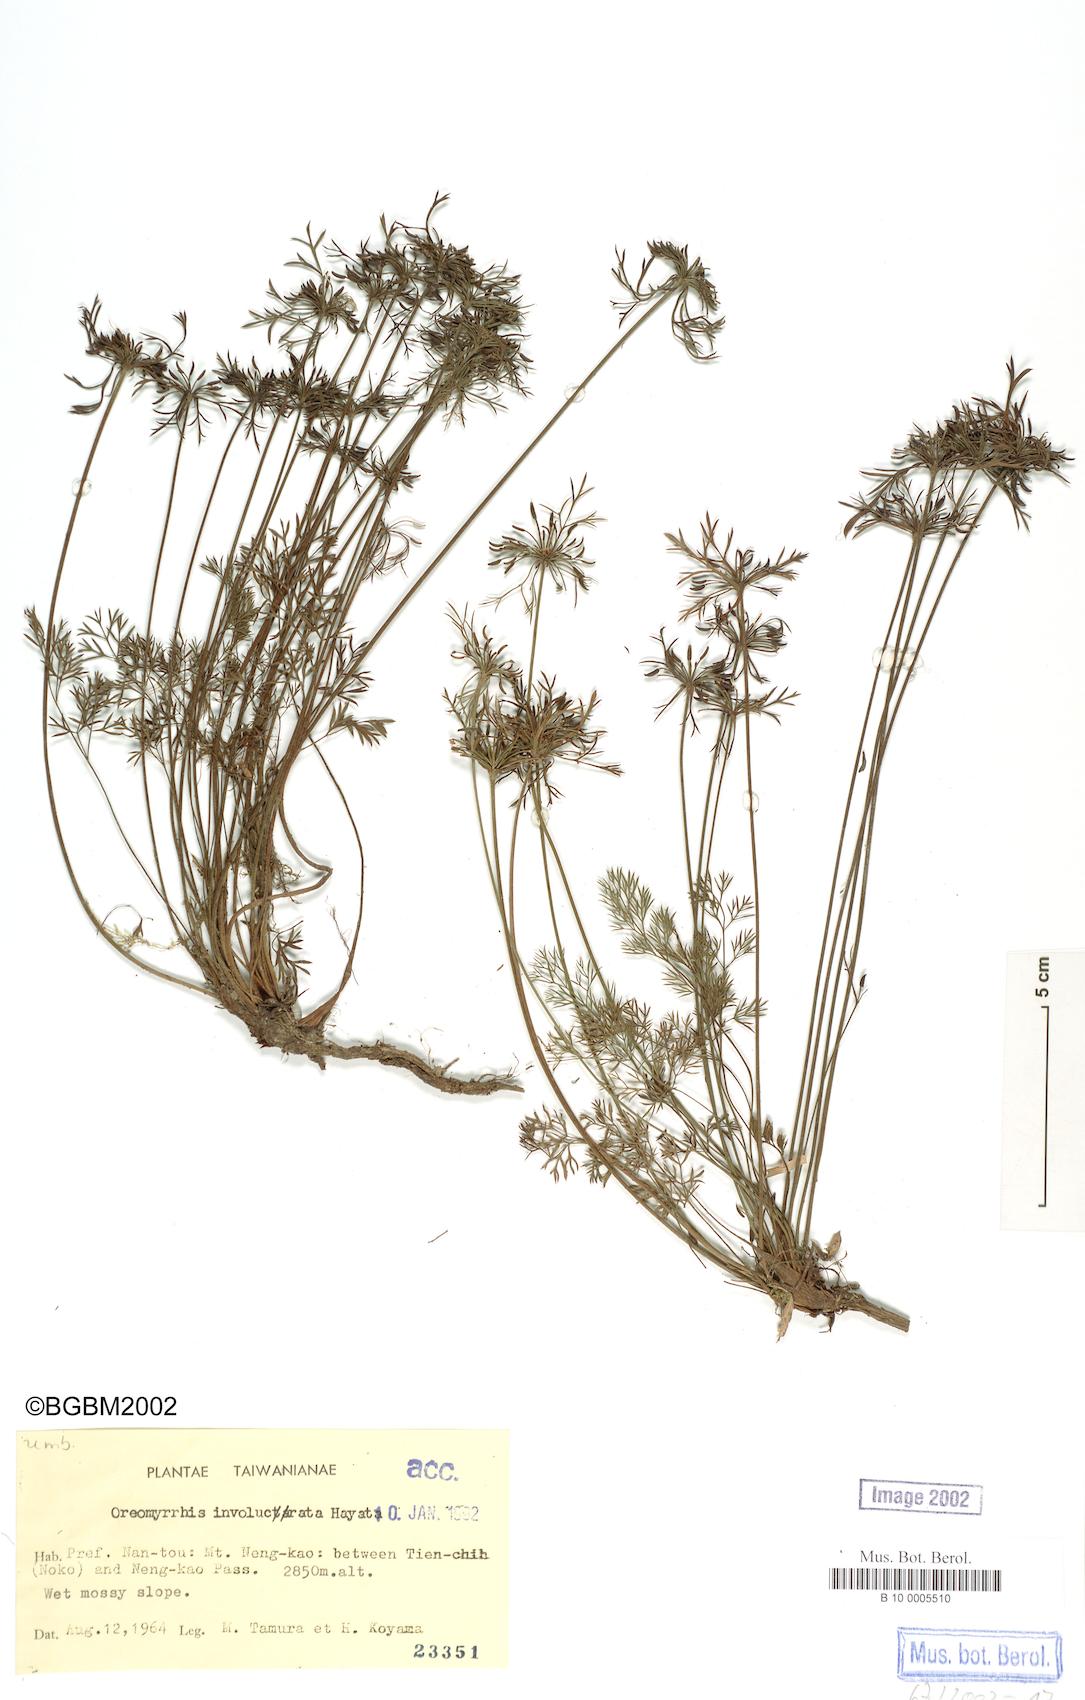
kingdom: Plantae
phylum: Tracheophyta
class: Magnoliopsida
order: Apiales
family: Apiaceae
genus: Chaerophyllum
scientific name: Chaerophyllum involucratum
